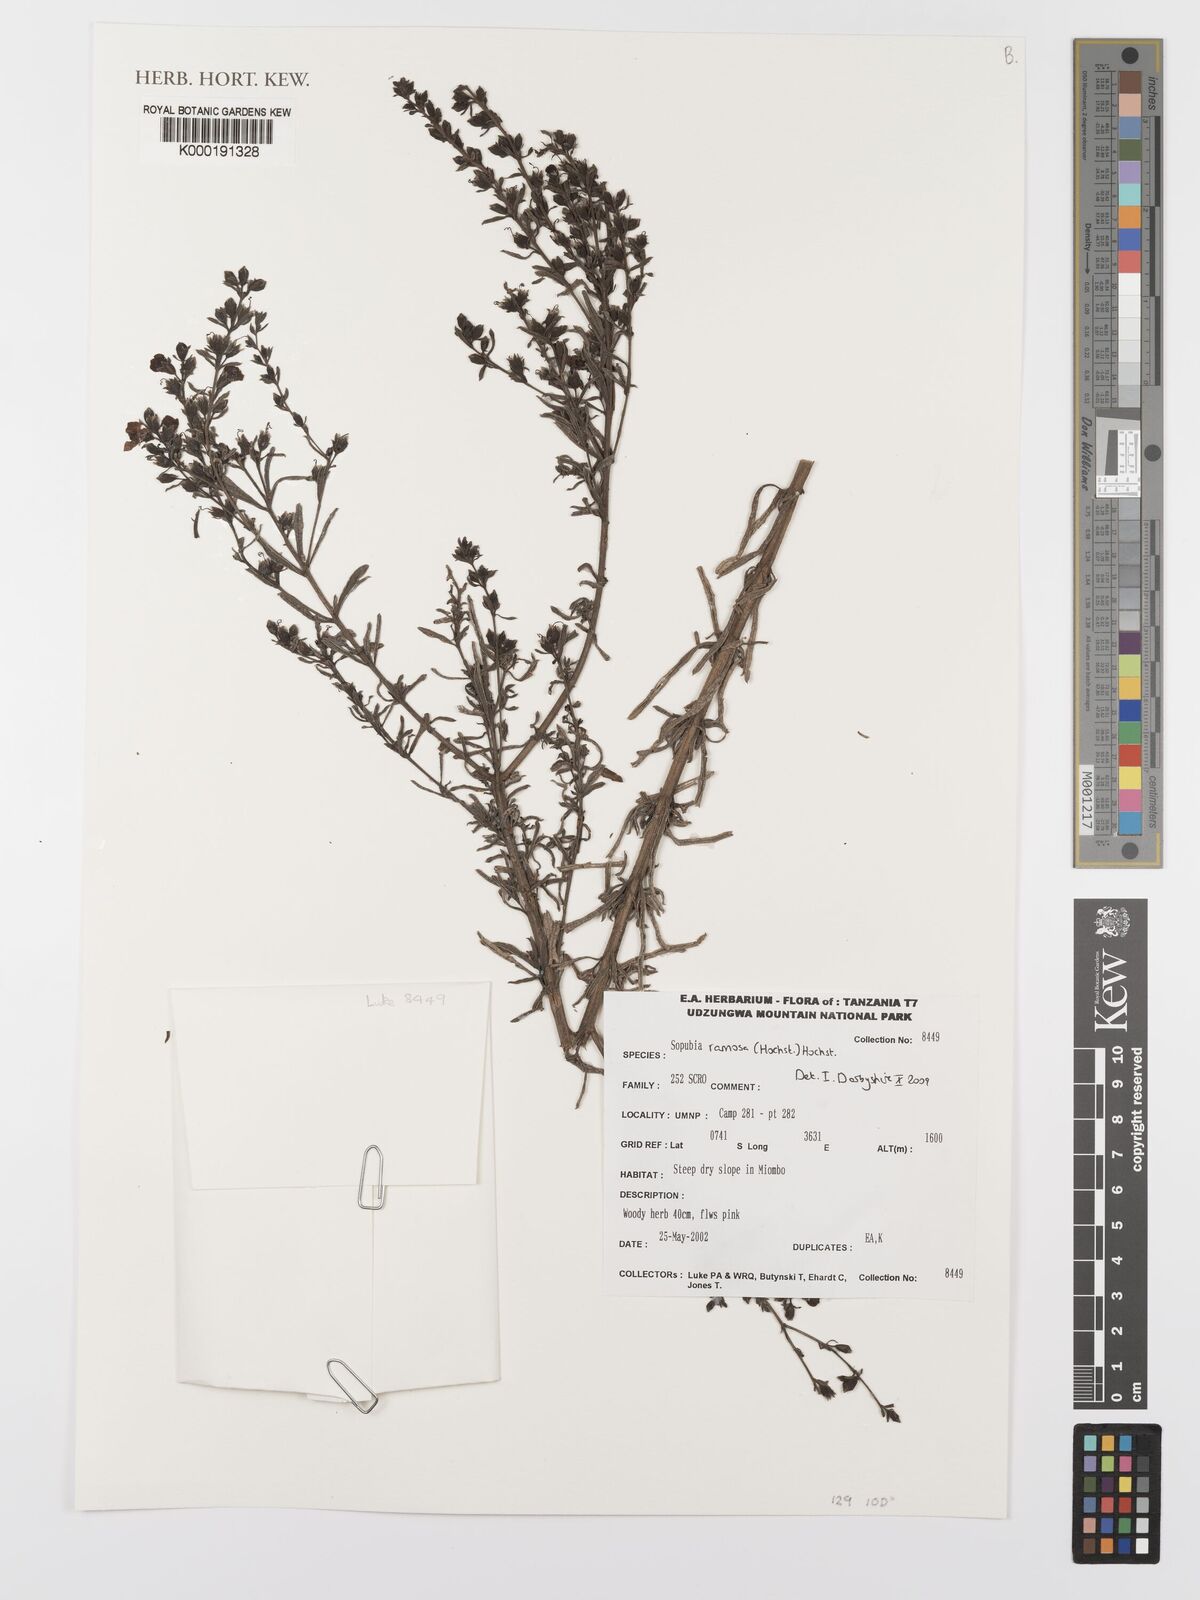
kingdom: Plantae
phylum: Tracheophyta
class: Magnoliopsida
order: Lamiales
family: Orobanchaceae
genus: Sopubia
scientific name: Sopubia ramosa
